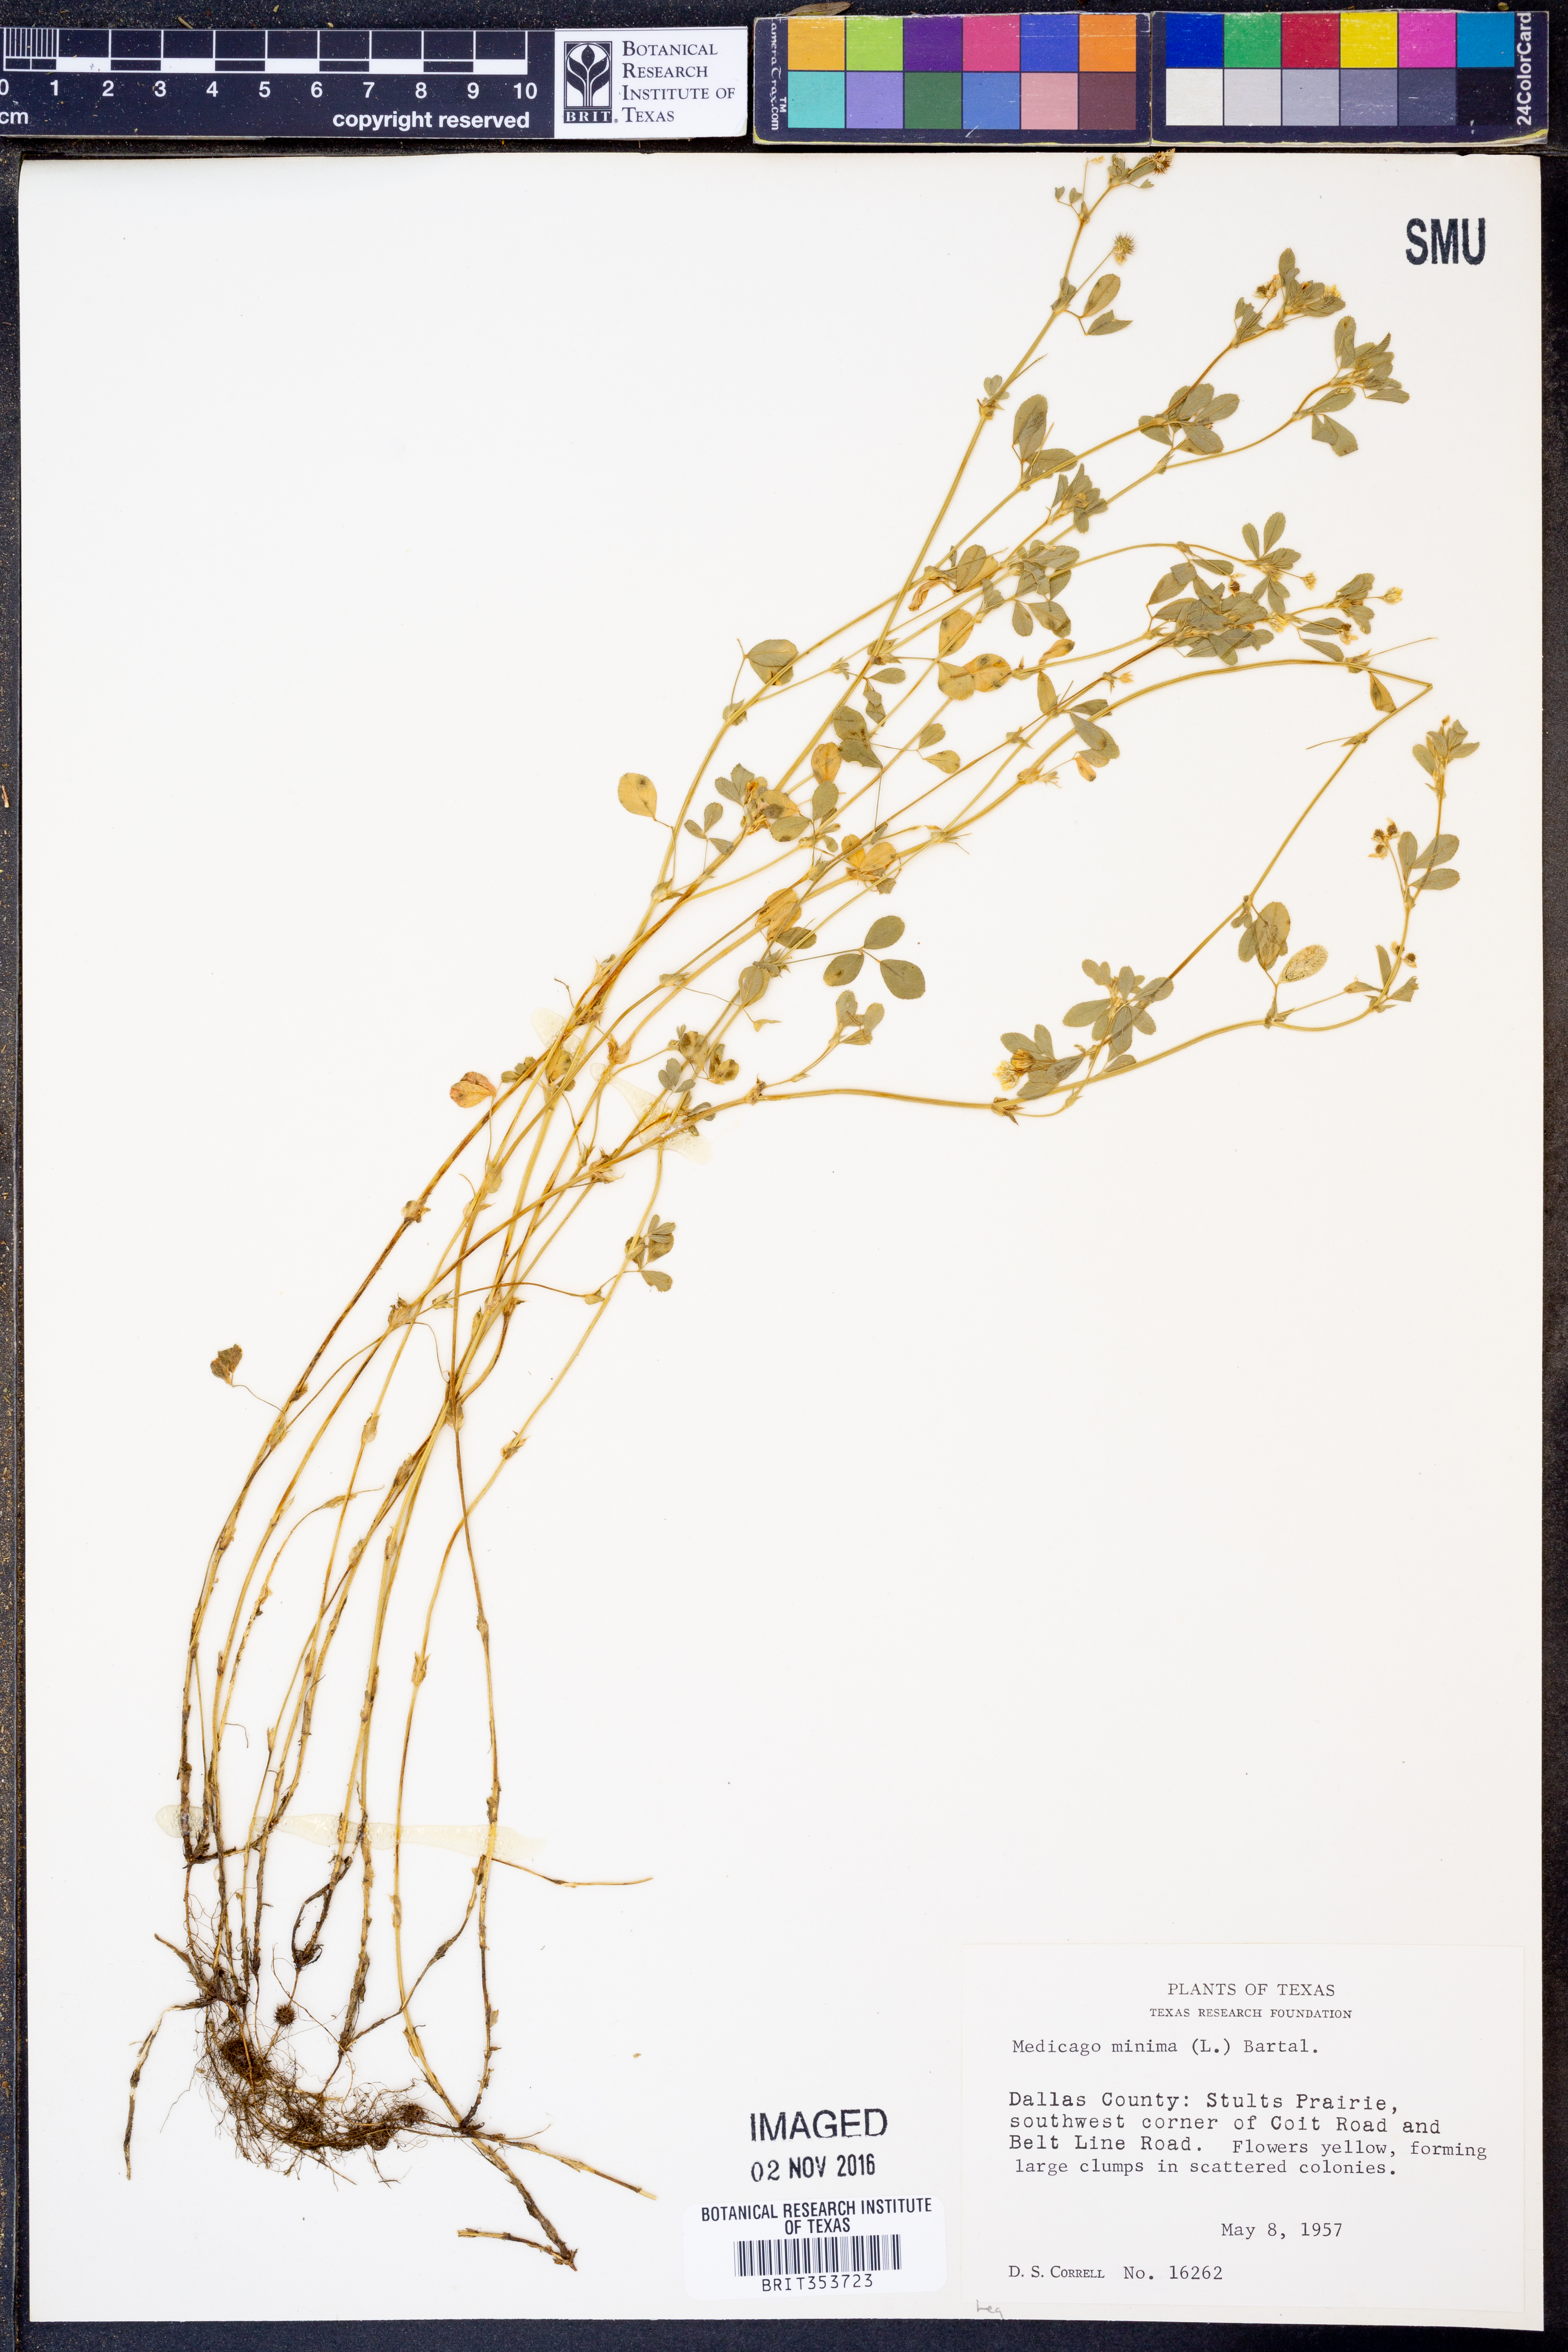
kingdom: Plantae
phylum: Tracheophyta
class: Magnoliopsida
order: Fabales
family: Fabaceae
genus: Medicago
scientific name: Medicago minima
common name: Little bur-clover
